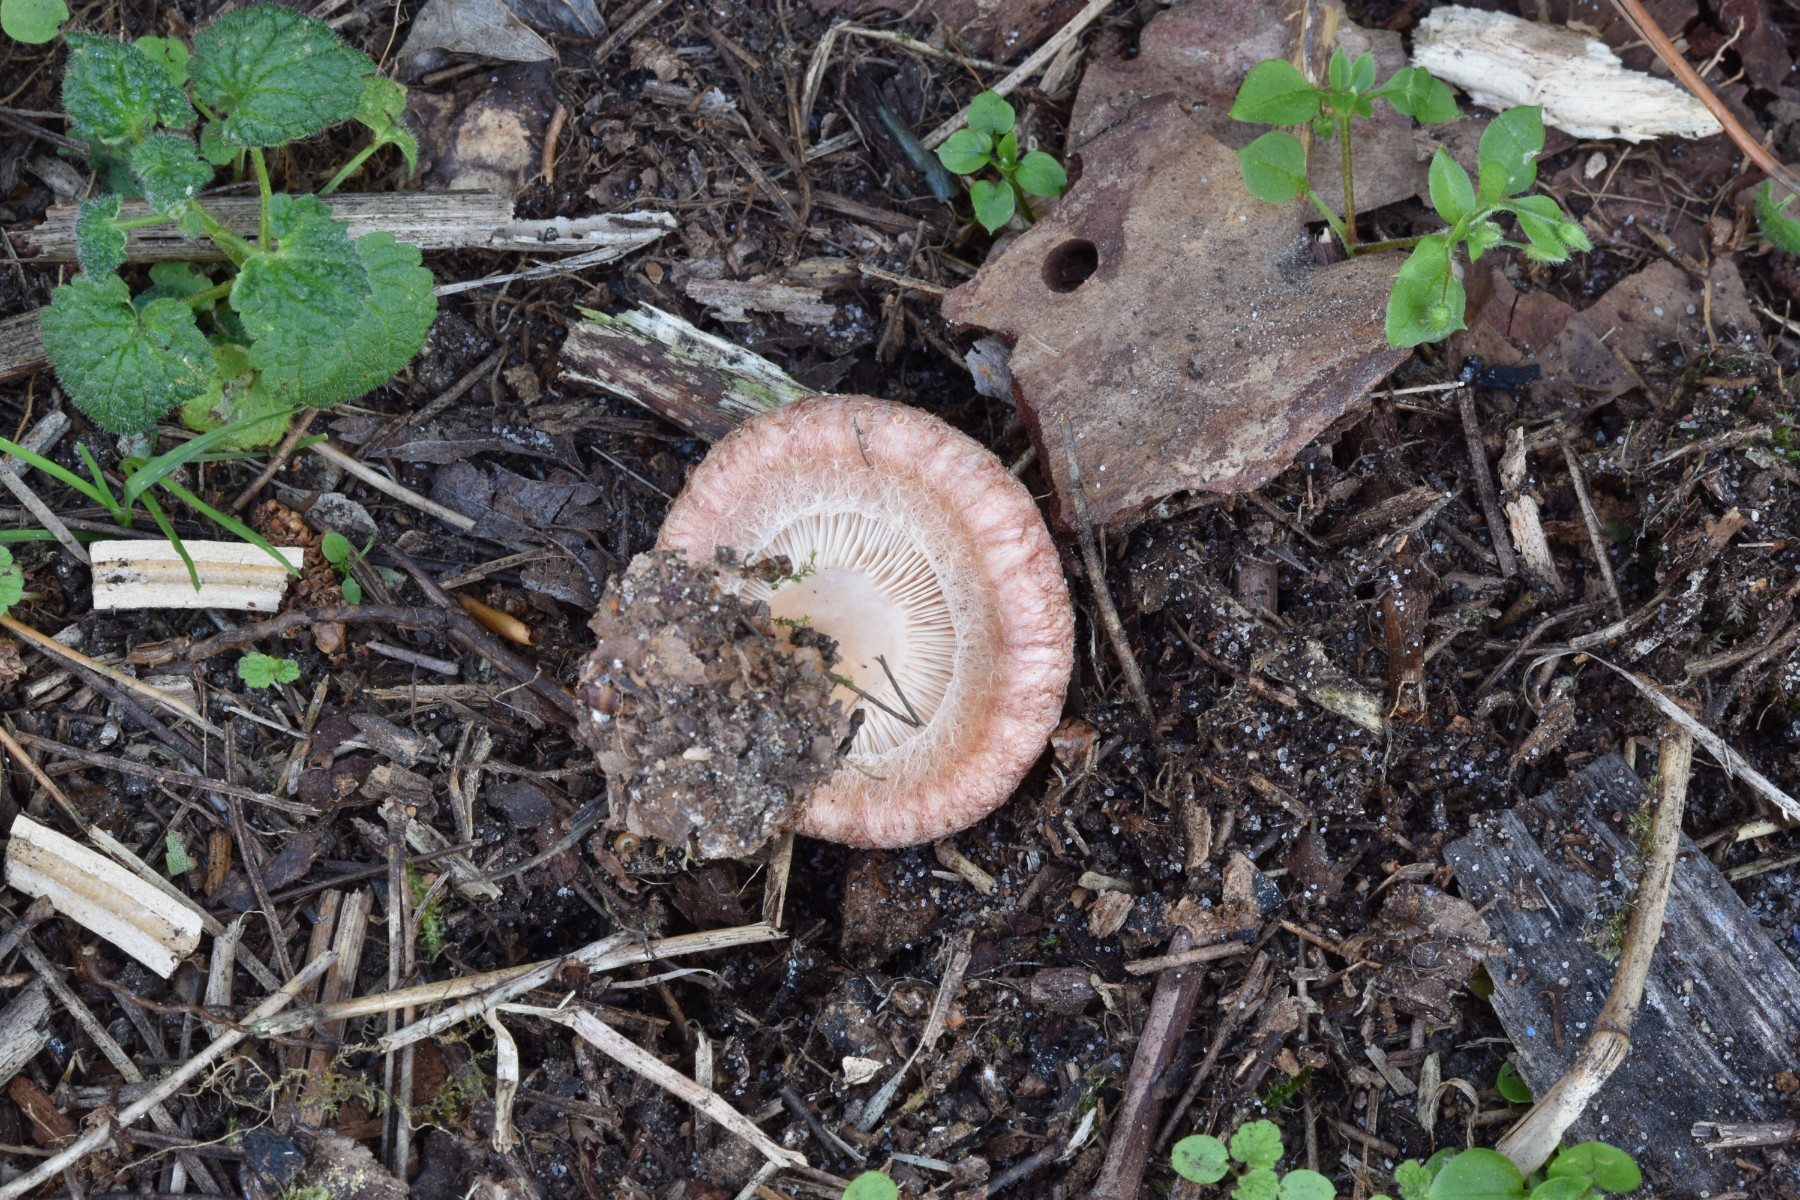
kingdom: Fungi
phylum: Basidiomycota
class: Agaricomycetes
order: Russulales
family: Russulaceae
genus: Lactarius
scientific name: Lactarius torminosus
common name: skægget mælkehat
